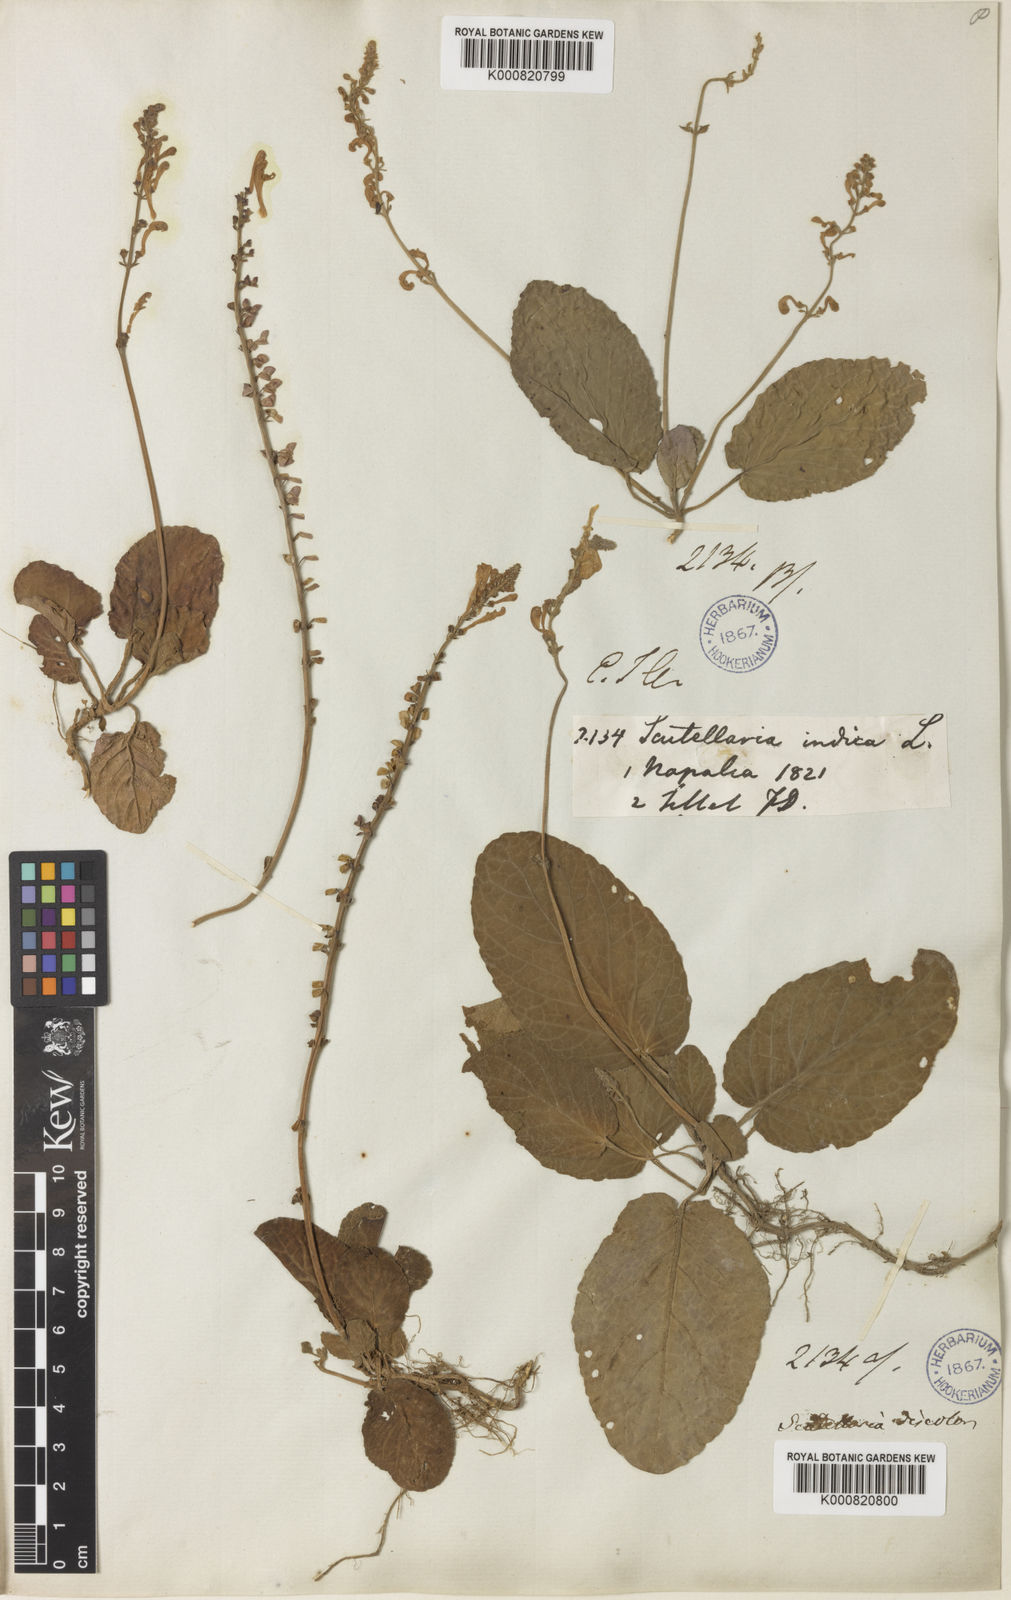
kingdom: Plantae
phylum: Tracheophyta
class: Magnoliopsida
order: Lamiales
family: Lamiaceae
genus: Scutellaria
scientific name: Scutellaria
